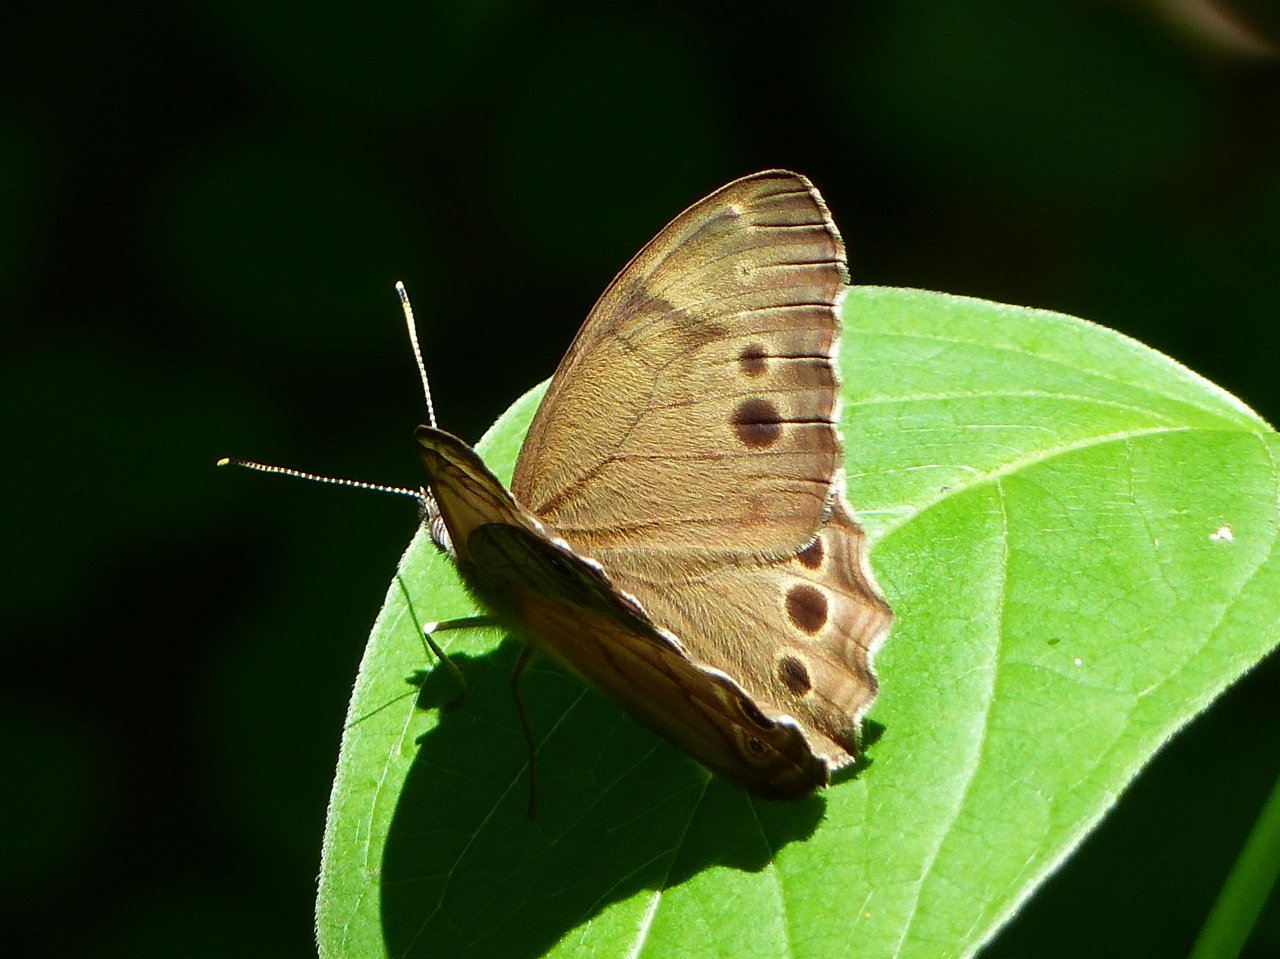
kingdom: Animalia
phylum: Arthropoda
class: Insecta
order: Lepidoptera
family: Nymphalidae
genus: Lethe
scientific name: Lethe anthedon
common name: Northern Pearly-Eye
